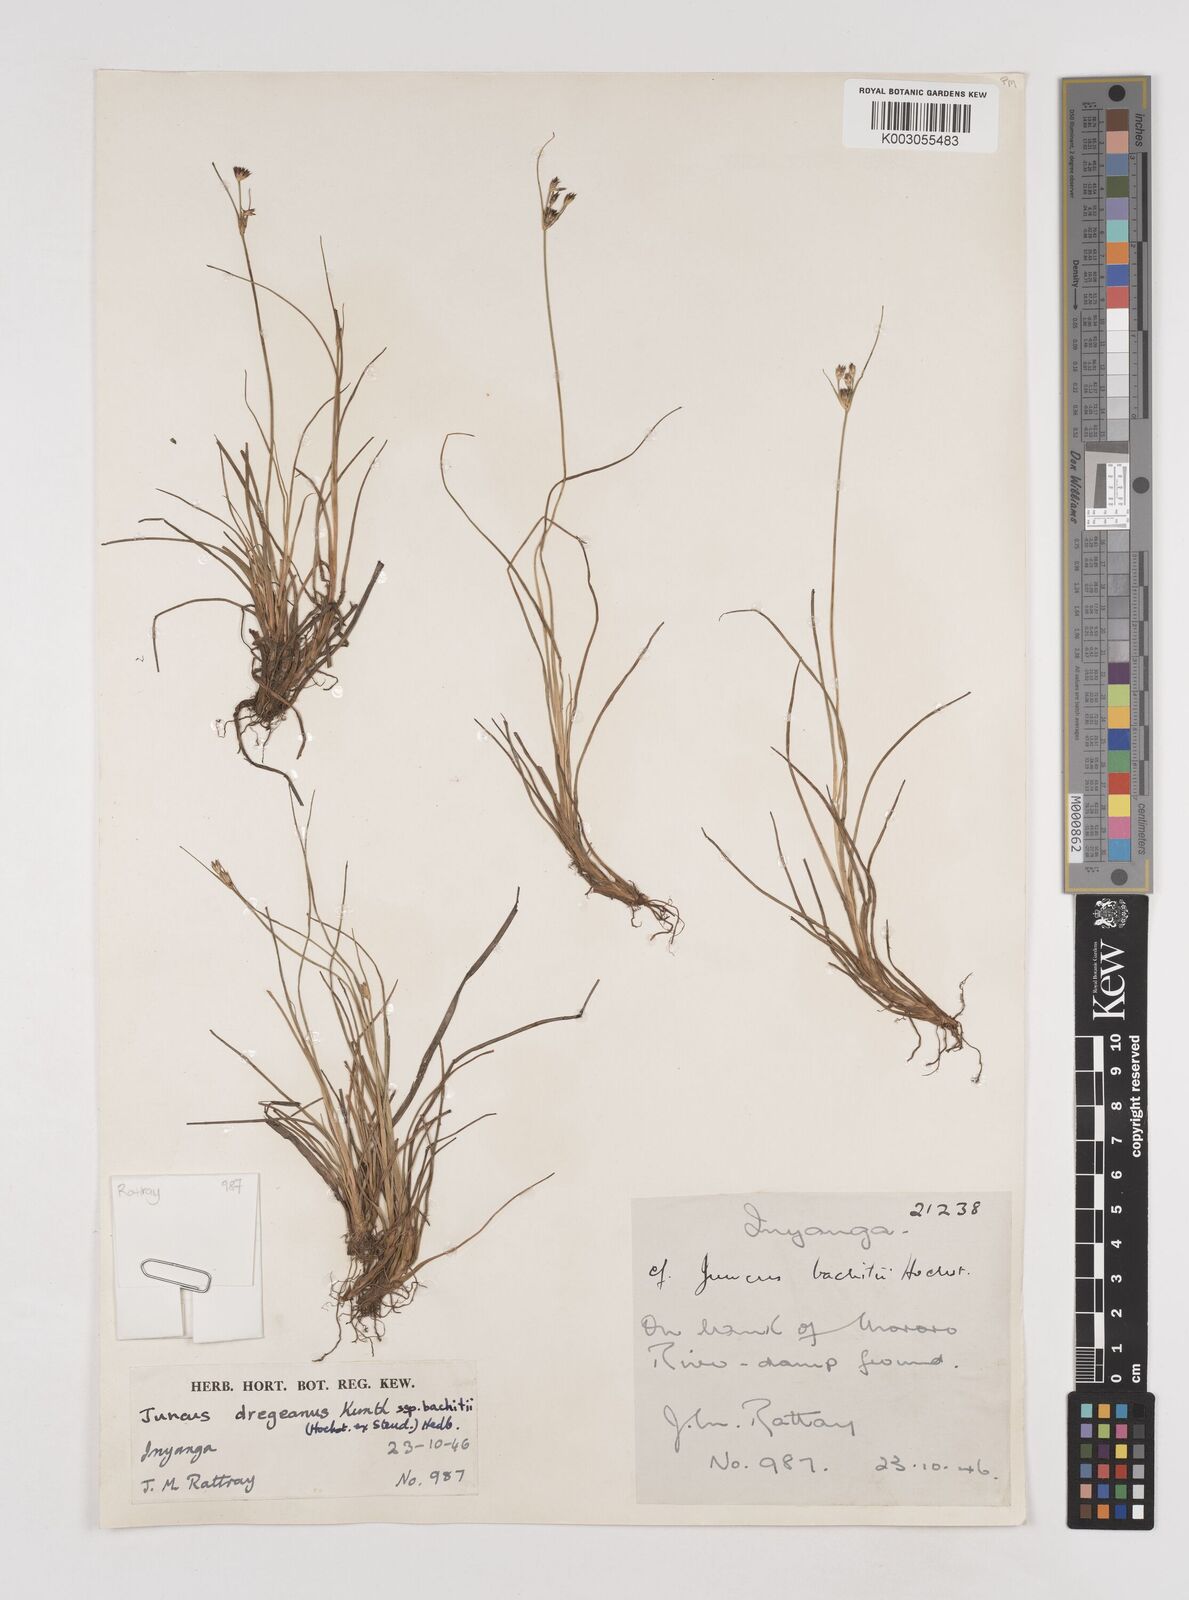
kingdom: Plantae
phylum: Tracheophyta
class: Liliopsida
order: Poales
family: Juncaceae
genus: Juncus
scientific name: Juncus dregeanus
